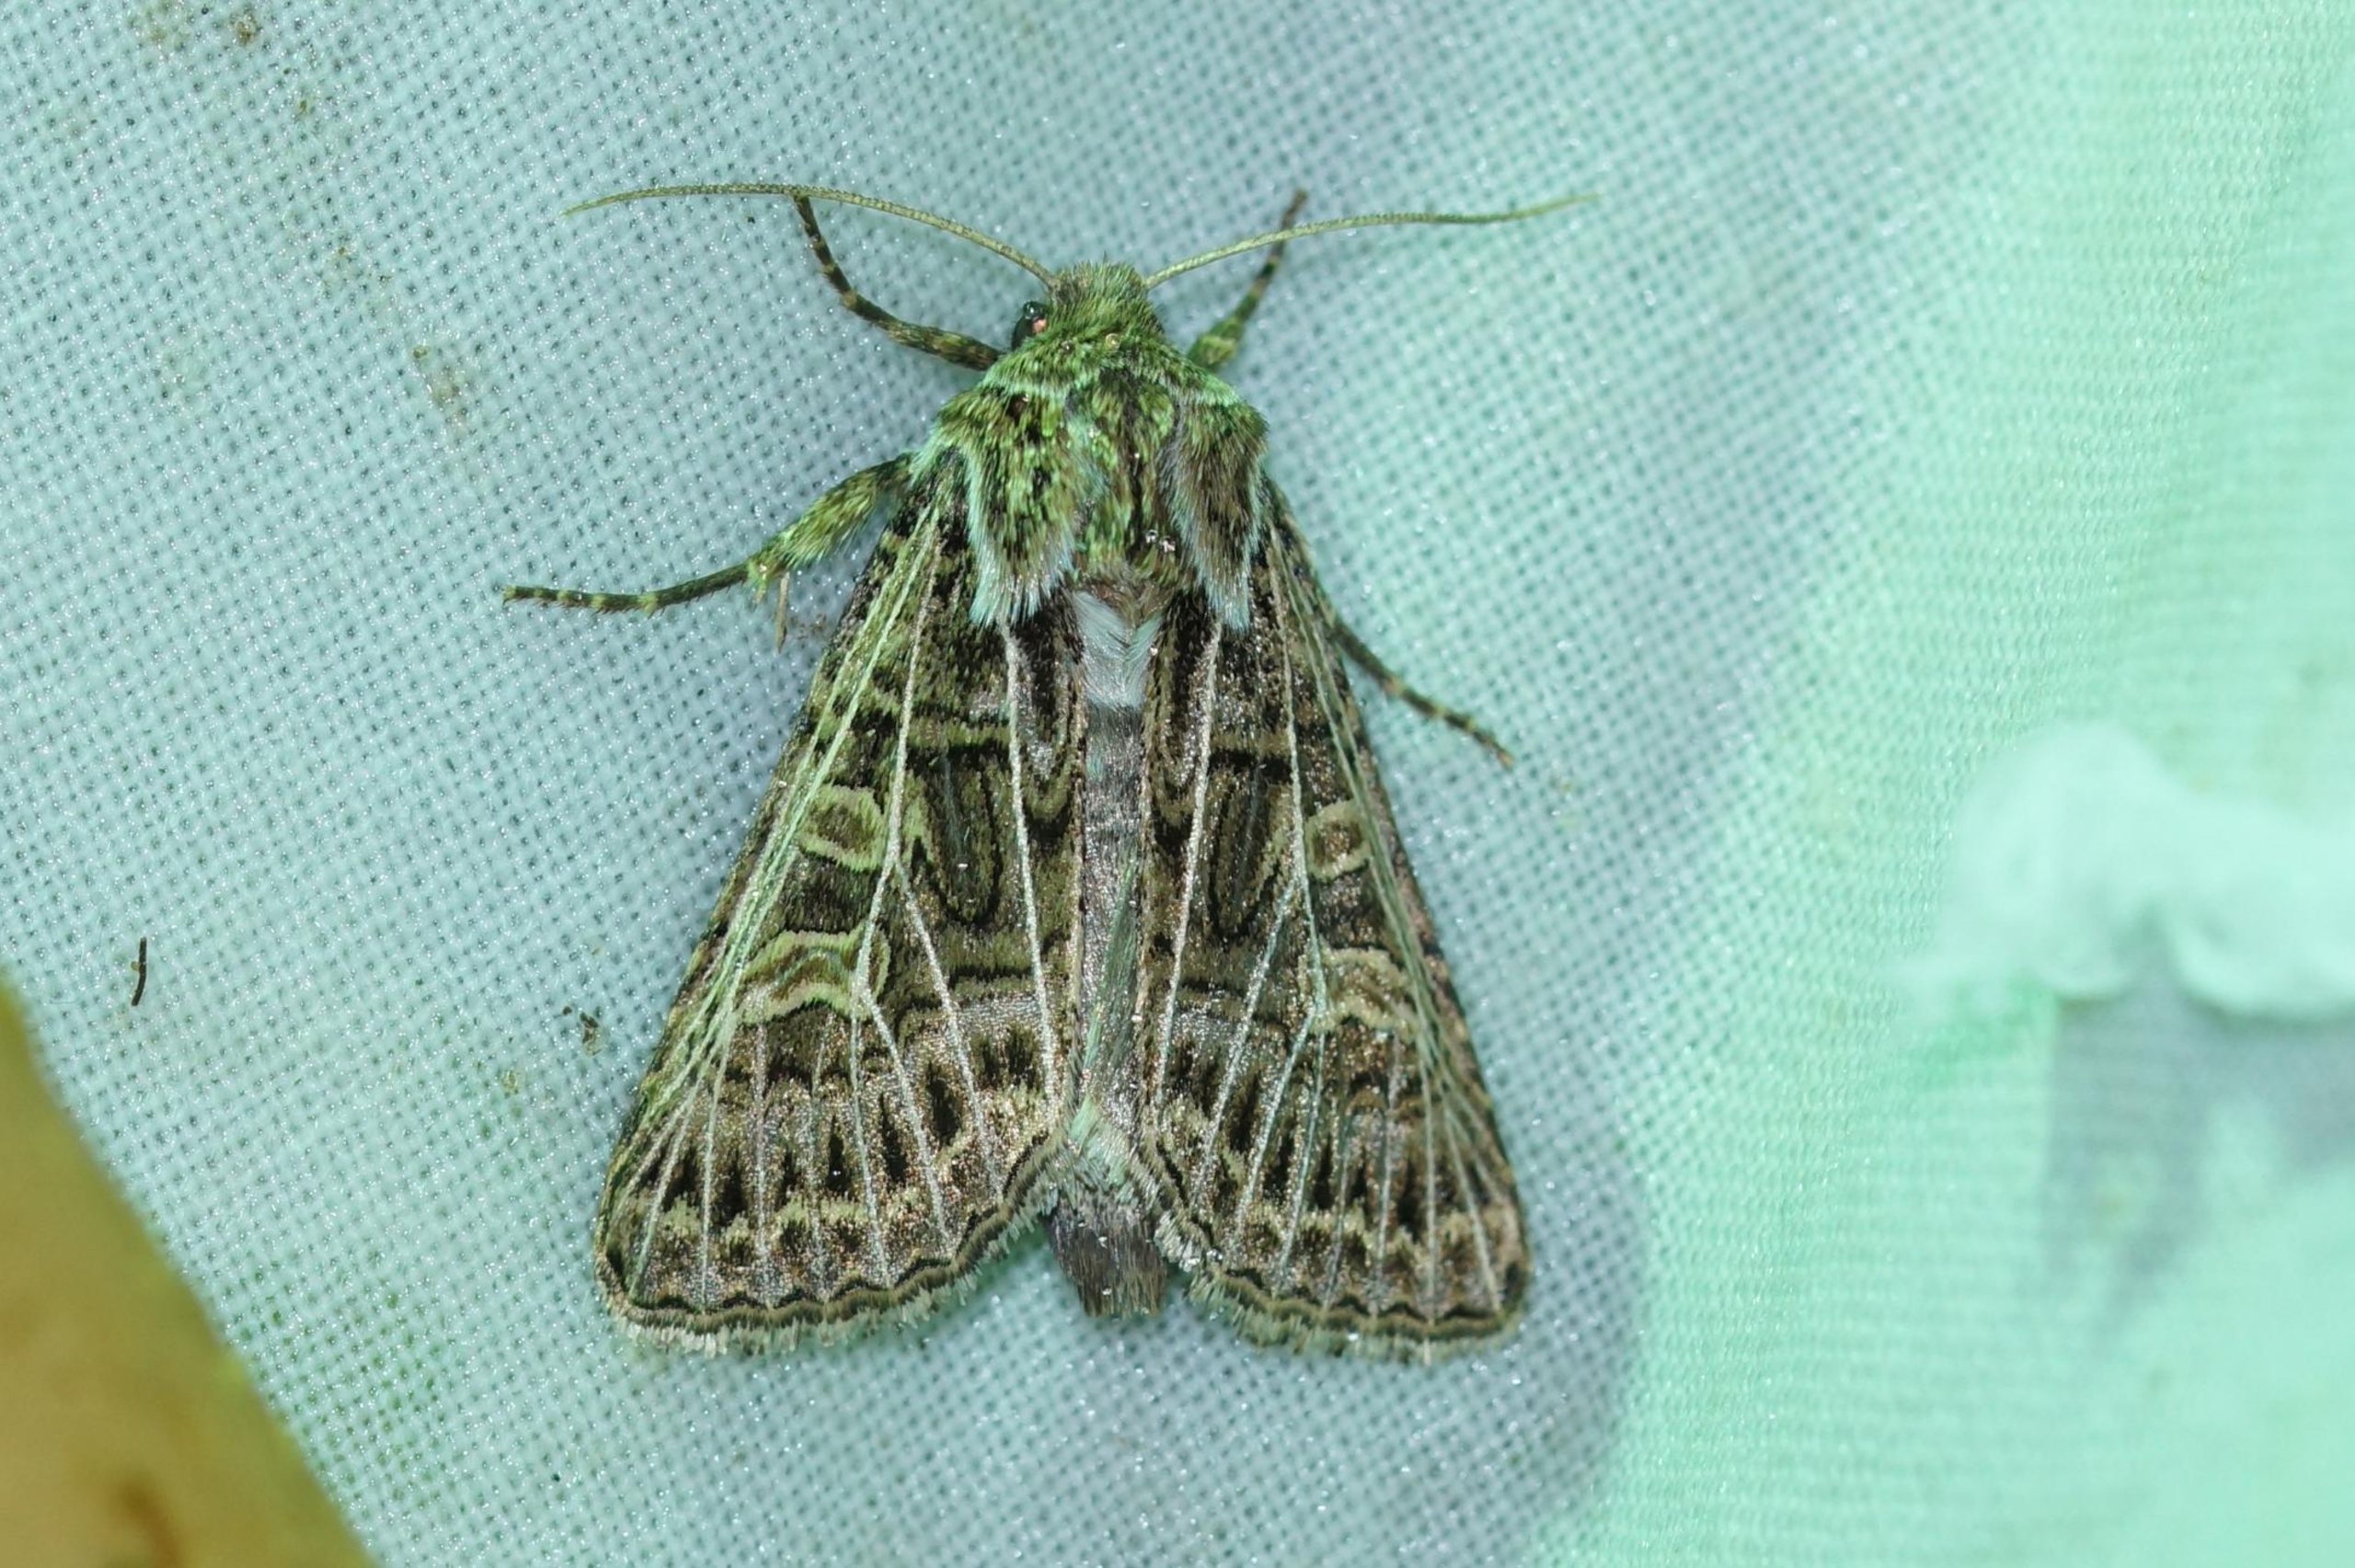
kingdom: Animalia
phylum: Arthropoda
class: Insecta
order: Lepidoptera
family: Noctuidae
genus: Tholera
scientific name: Tholera decimalis
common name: Hvidåret græsugle
